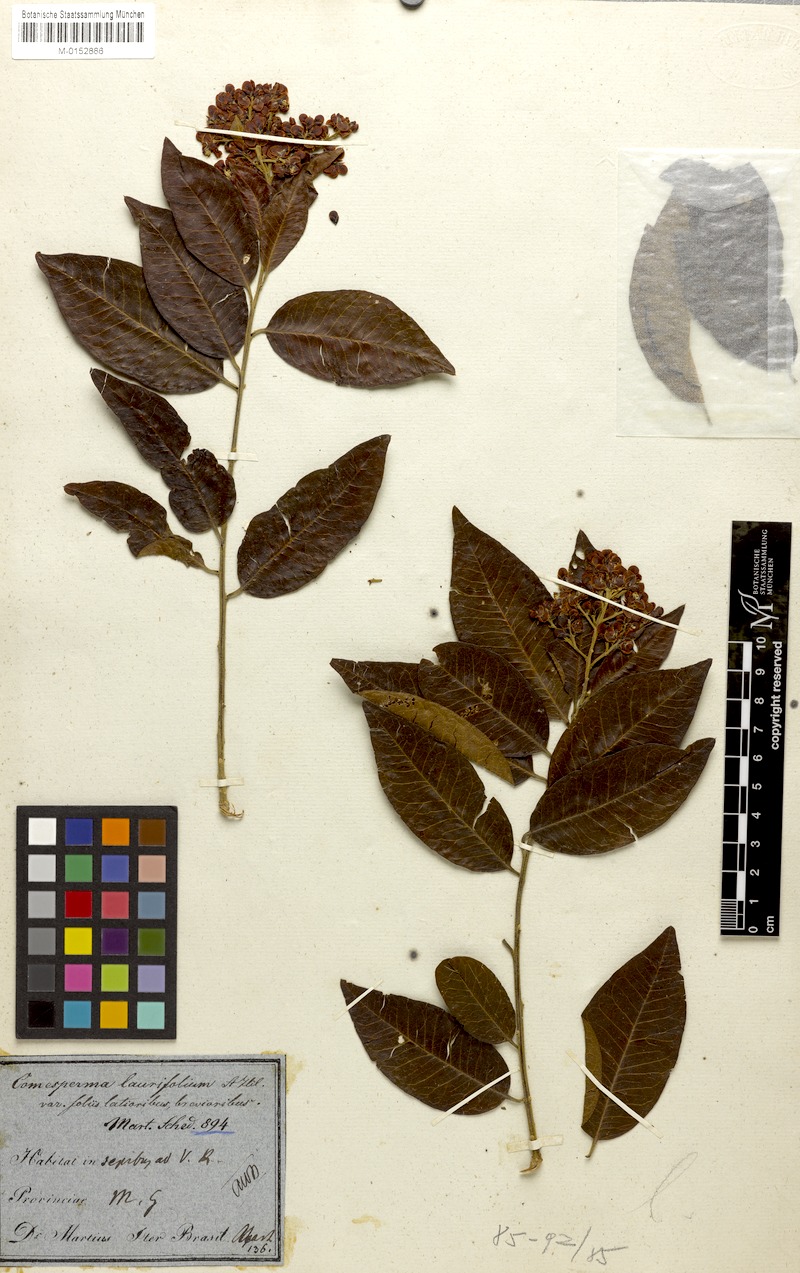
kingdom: Plantae
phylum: Tracheophyta
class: Magnoliopsida
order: Fabales
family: Polygalaceae
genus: Bredemeyera
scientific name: Bredemeyera laurifolia
